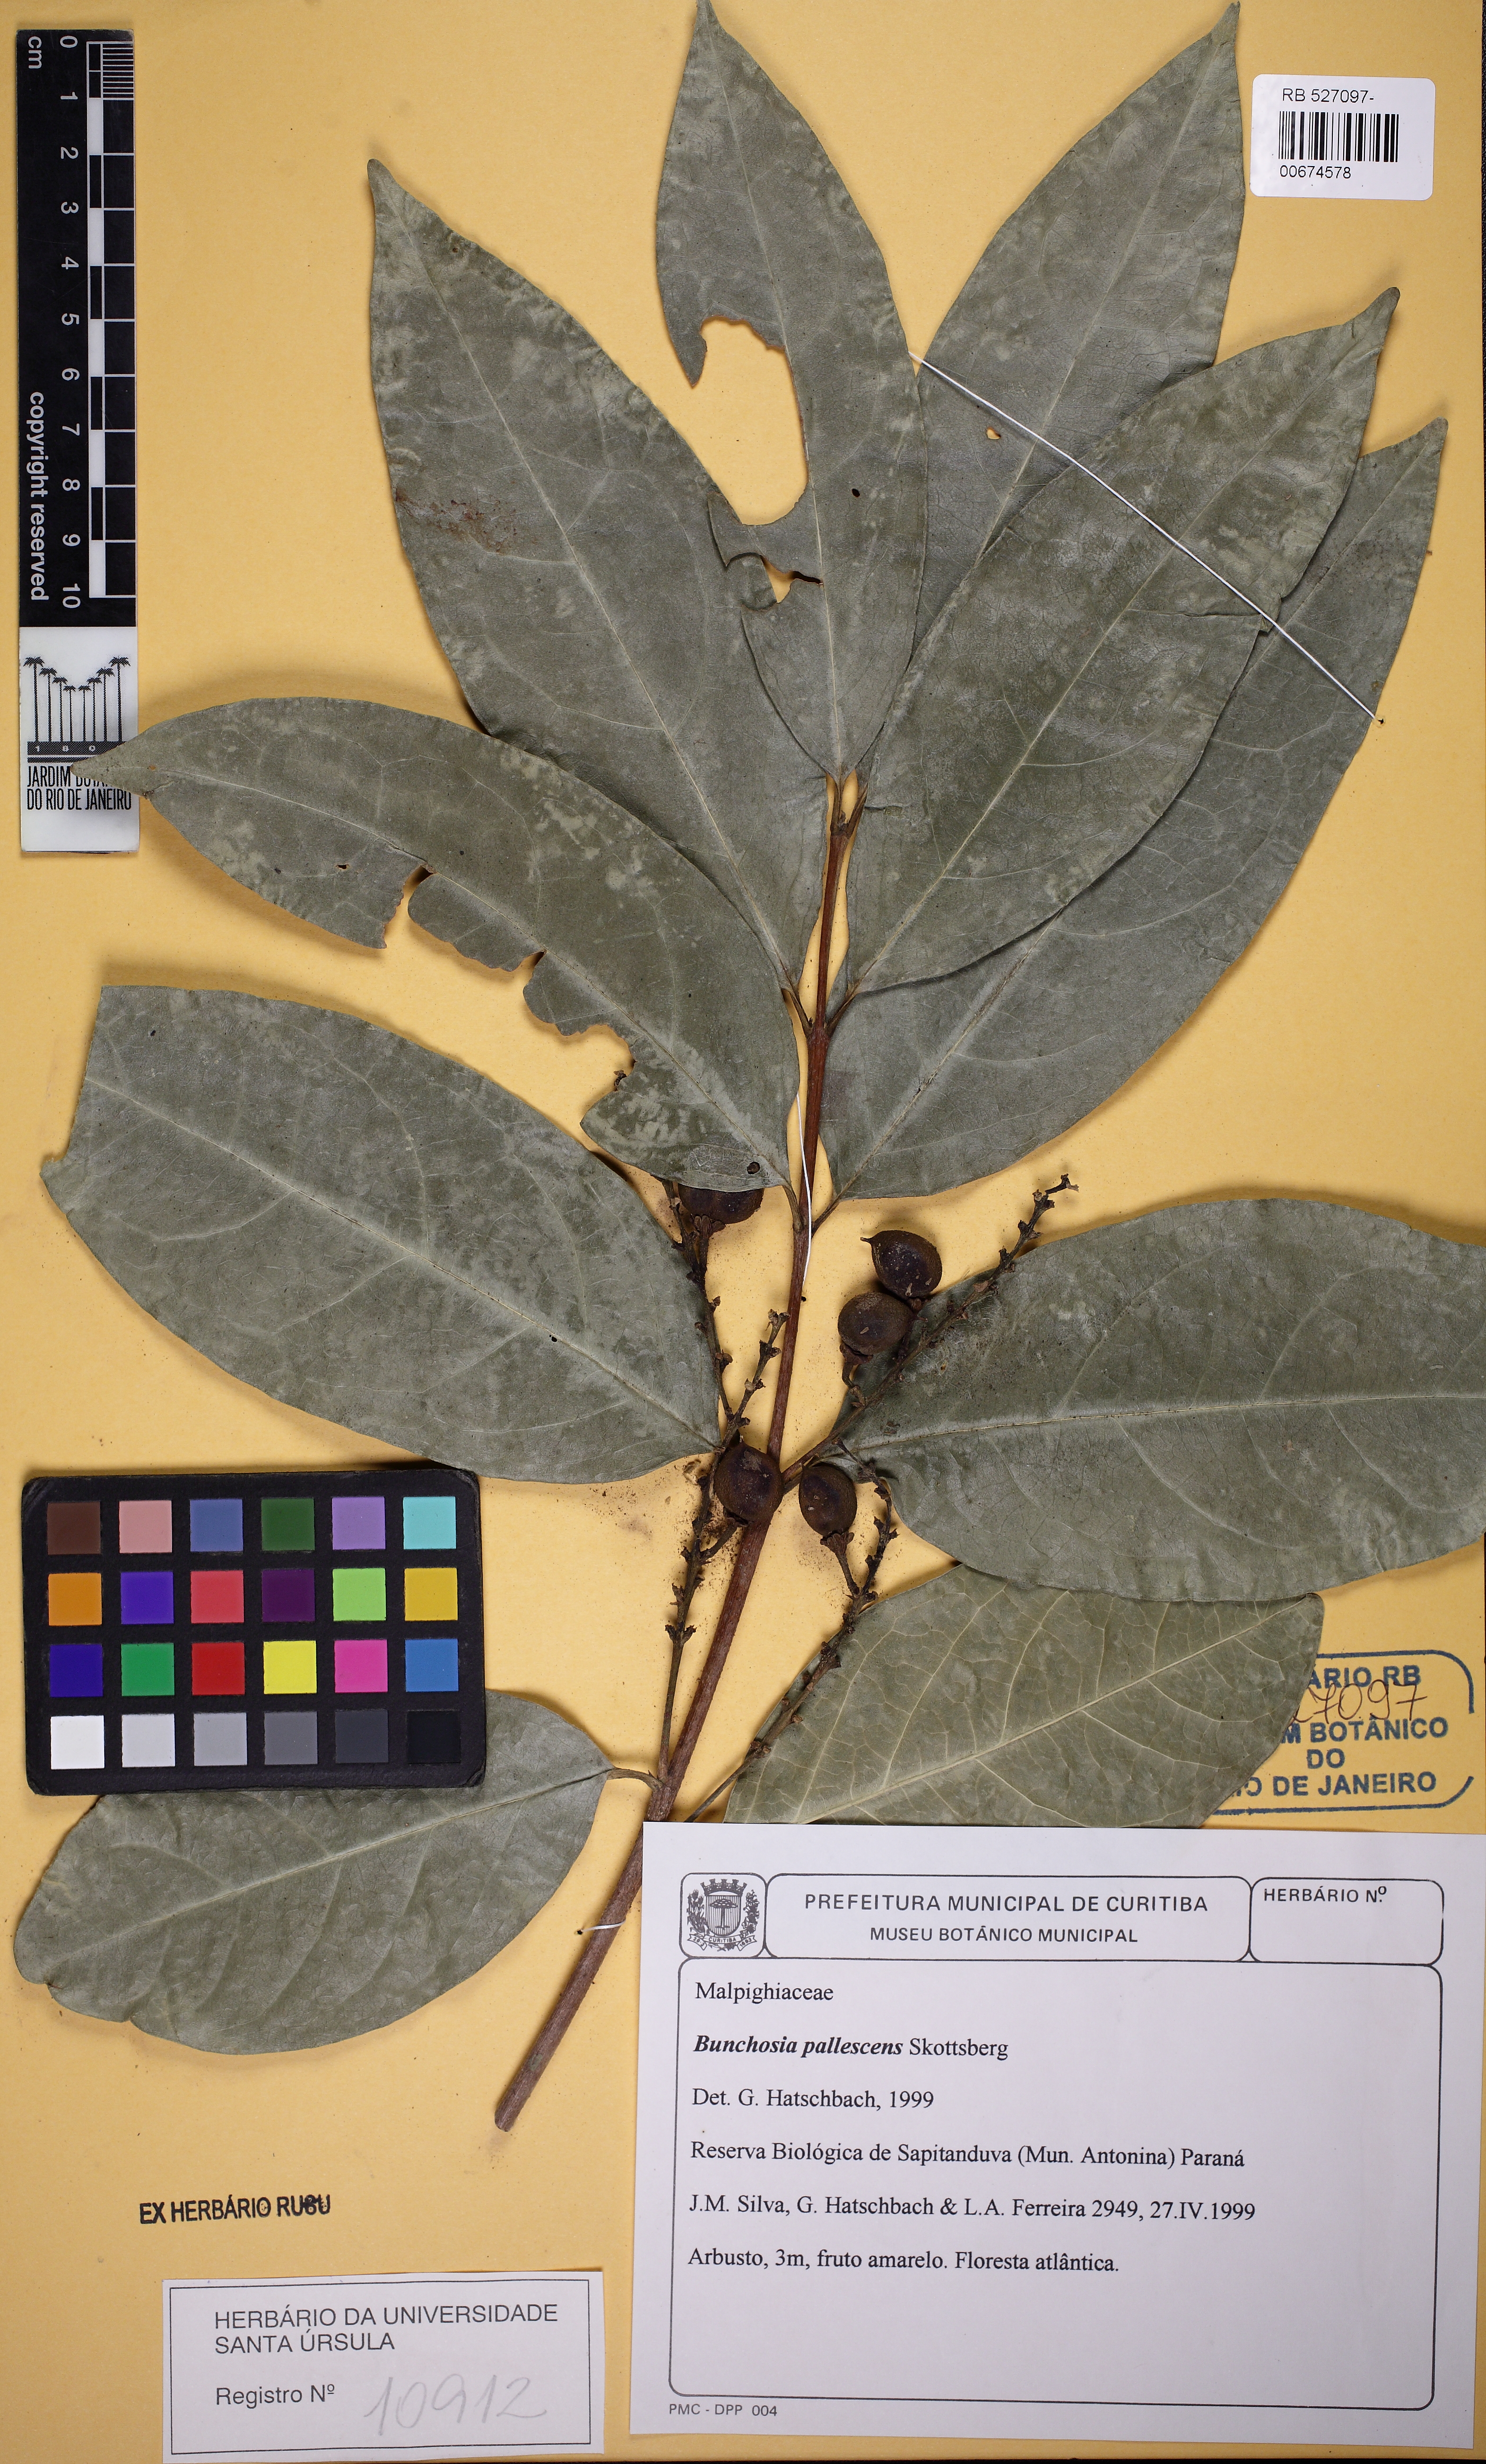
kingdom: Plantae
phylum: Tracheophyta
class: Magnoliopsida
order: Malpighiales
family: Malpighiaceae
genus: Bunchosia
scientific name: Bunchosia pallescens
